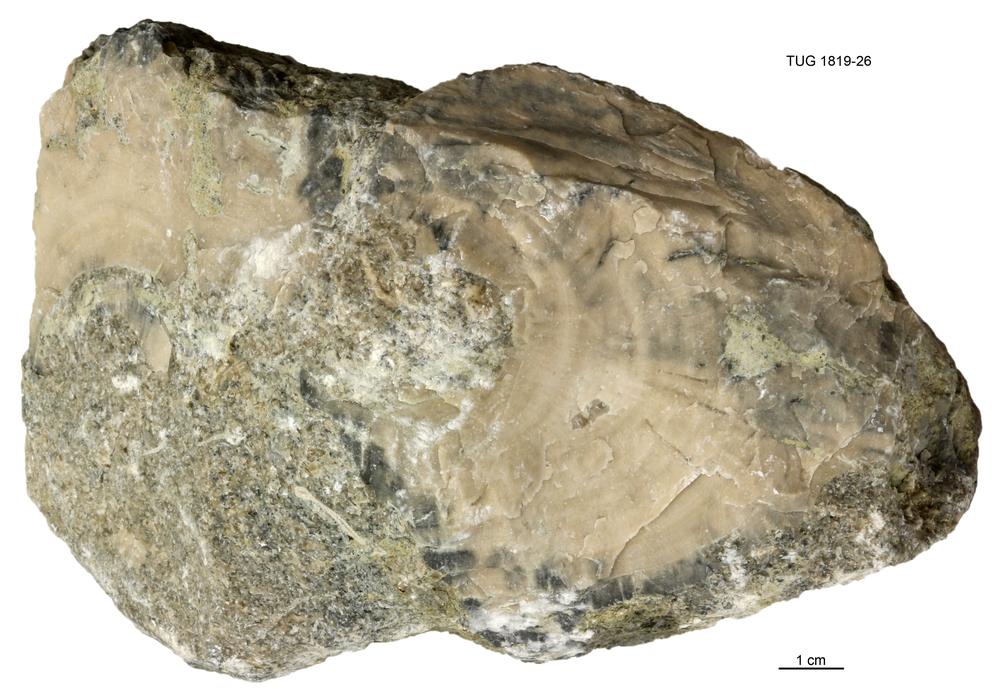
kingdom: Animalia
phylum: Porifera
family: Chaetetidae
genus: Solenopora
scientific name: Solenopora
